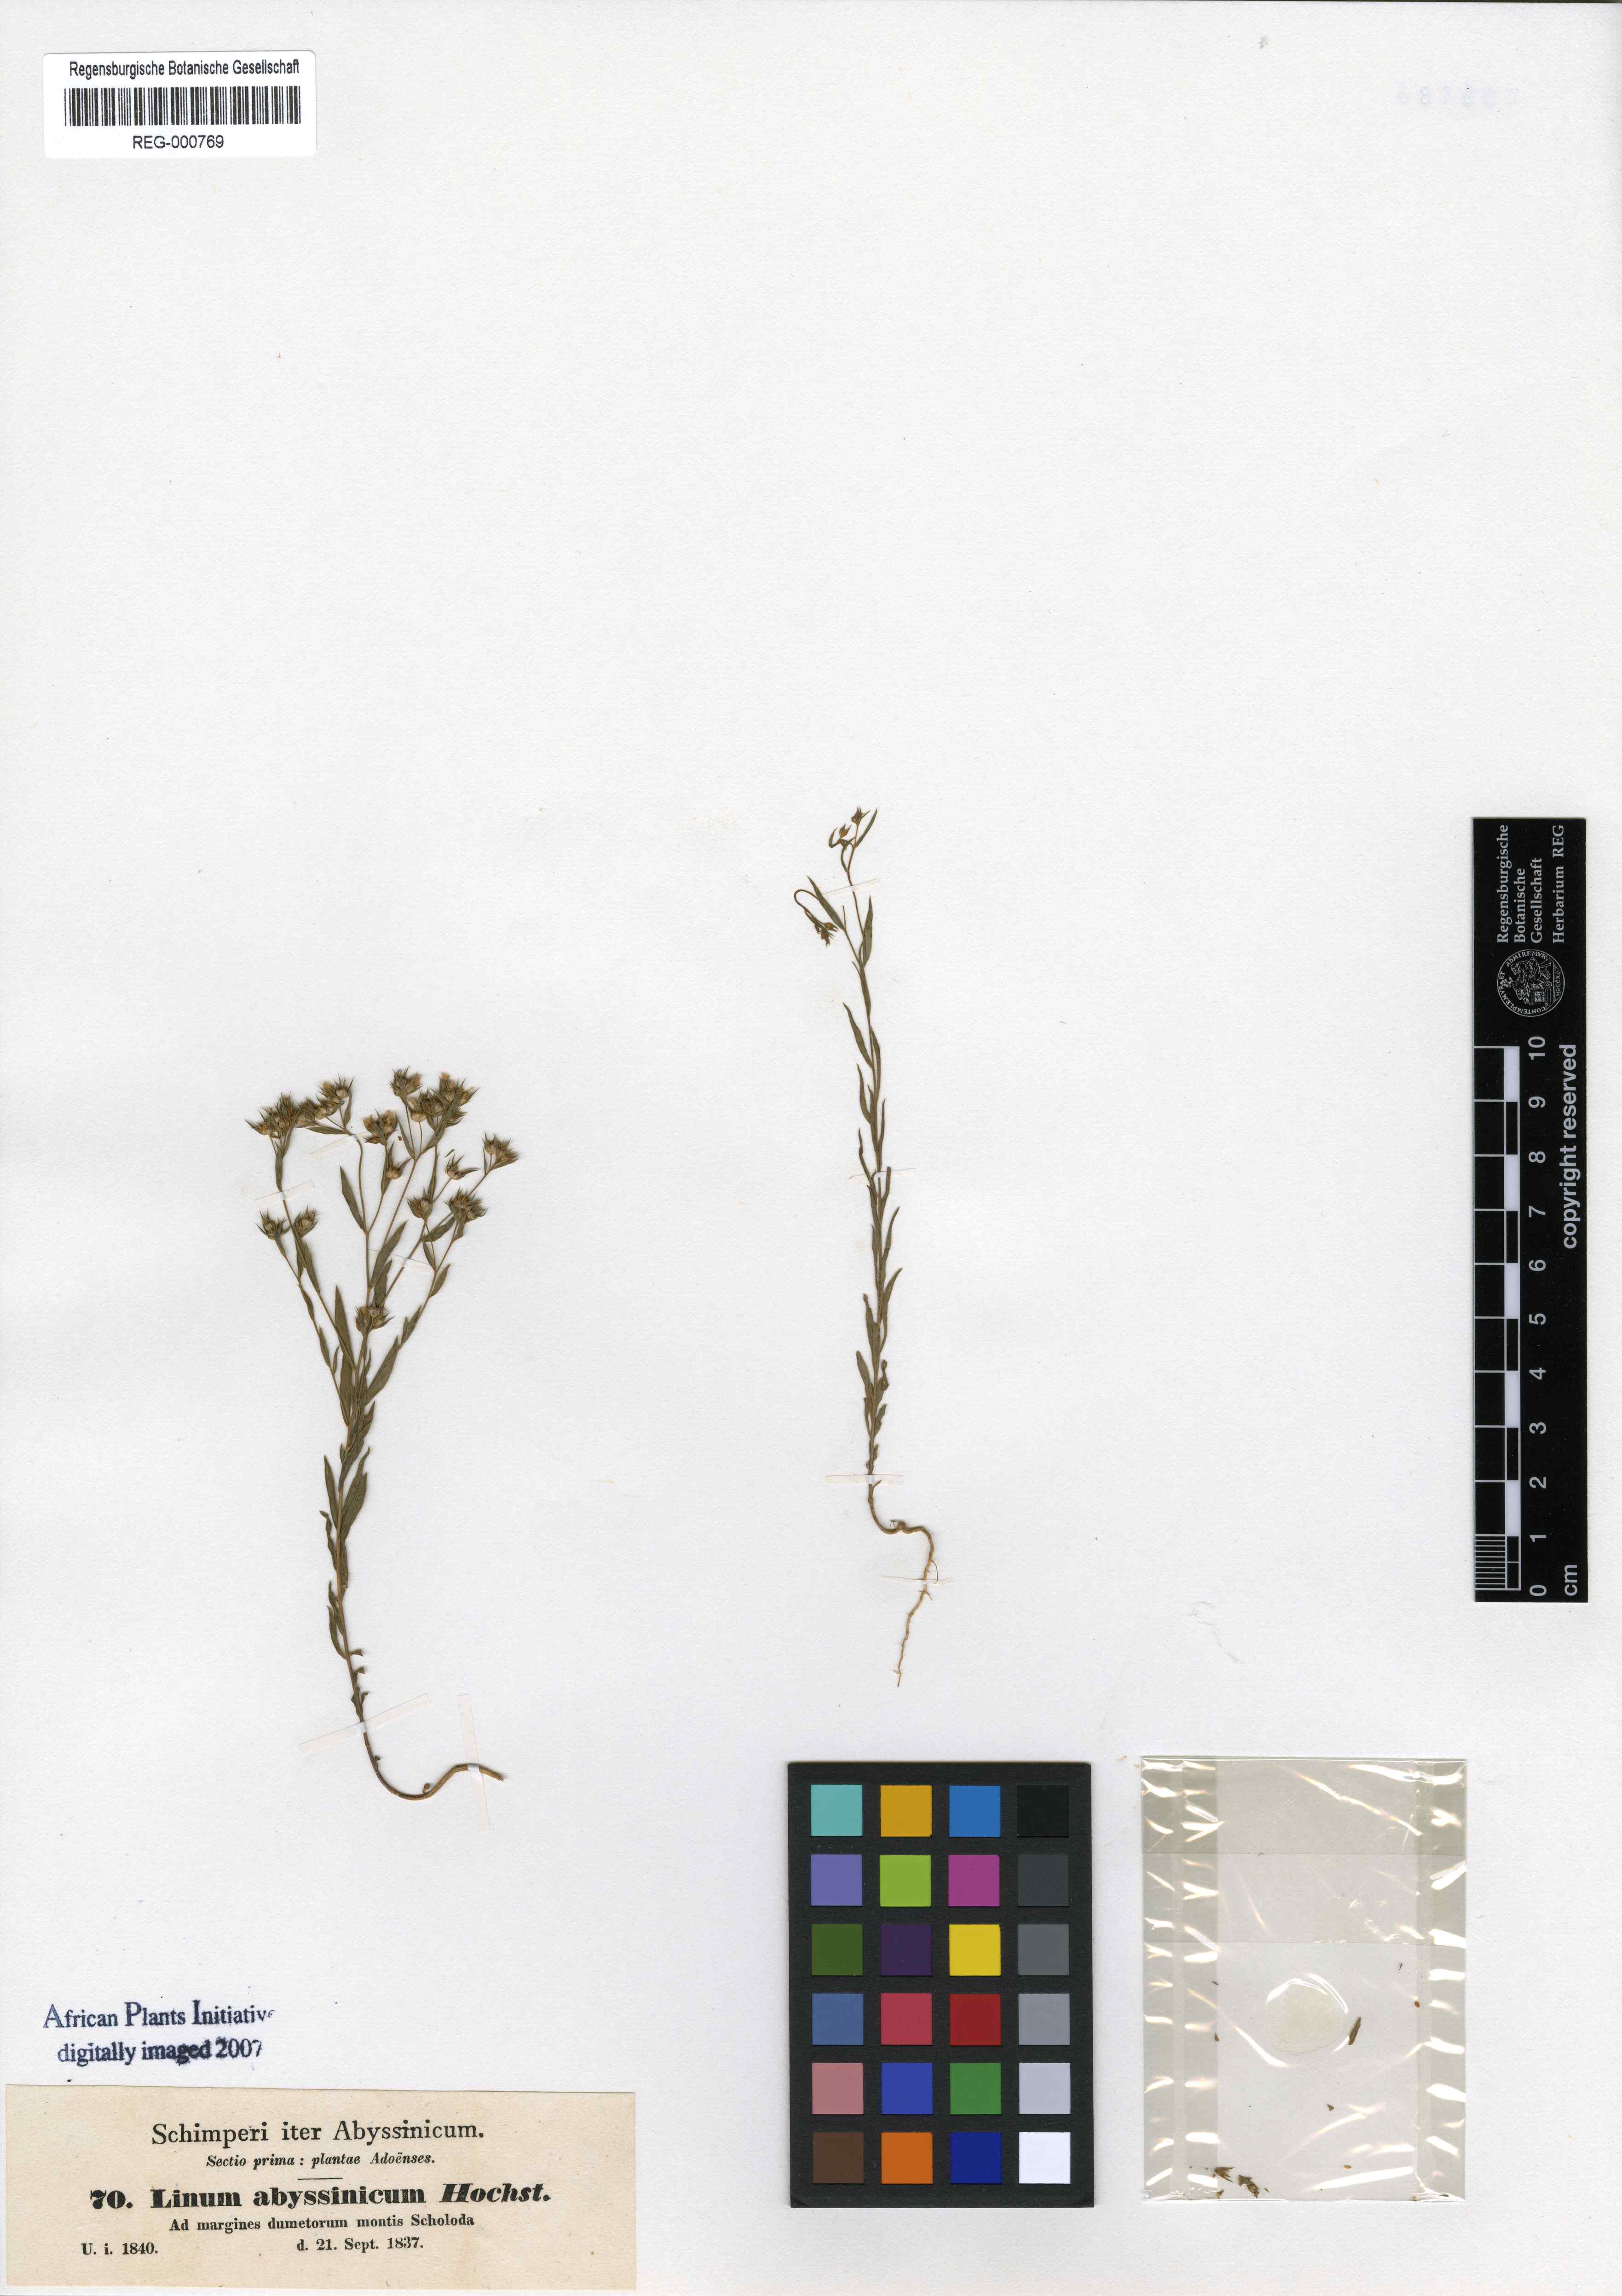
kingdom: Plantae
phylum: Tracheophyta
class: Magnoliopsida
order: Malpighiales
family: Linaceae
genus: Linum
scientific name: Linum corymbulosum
